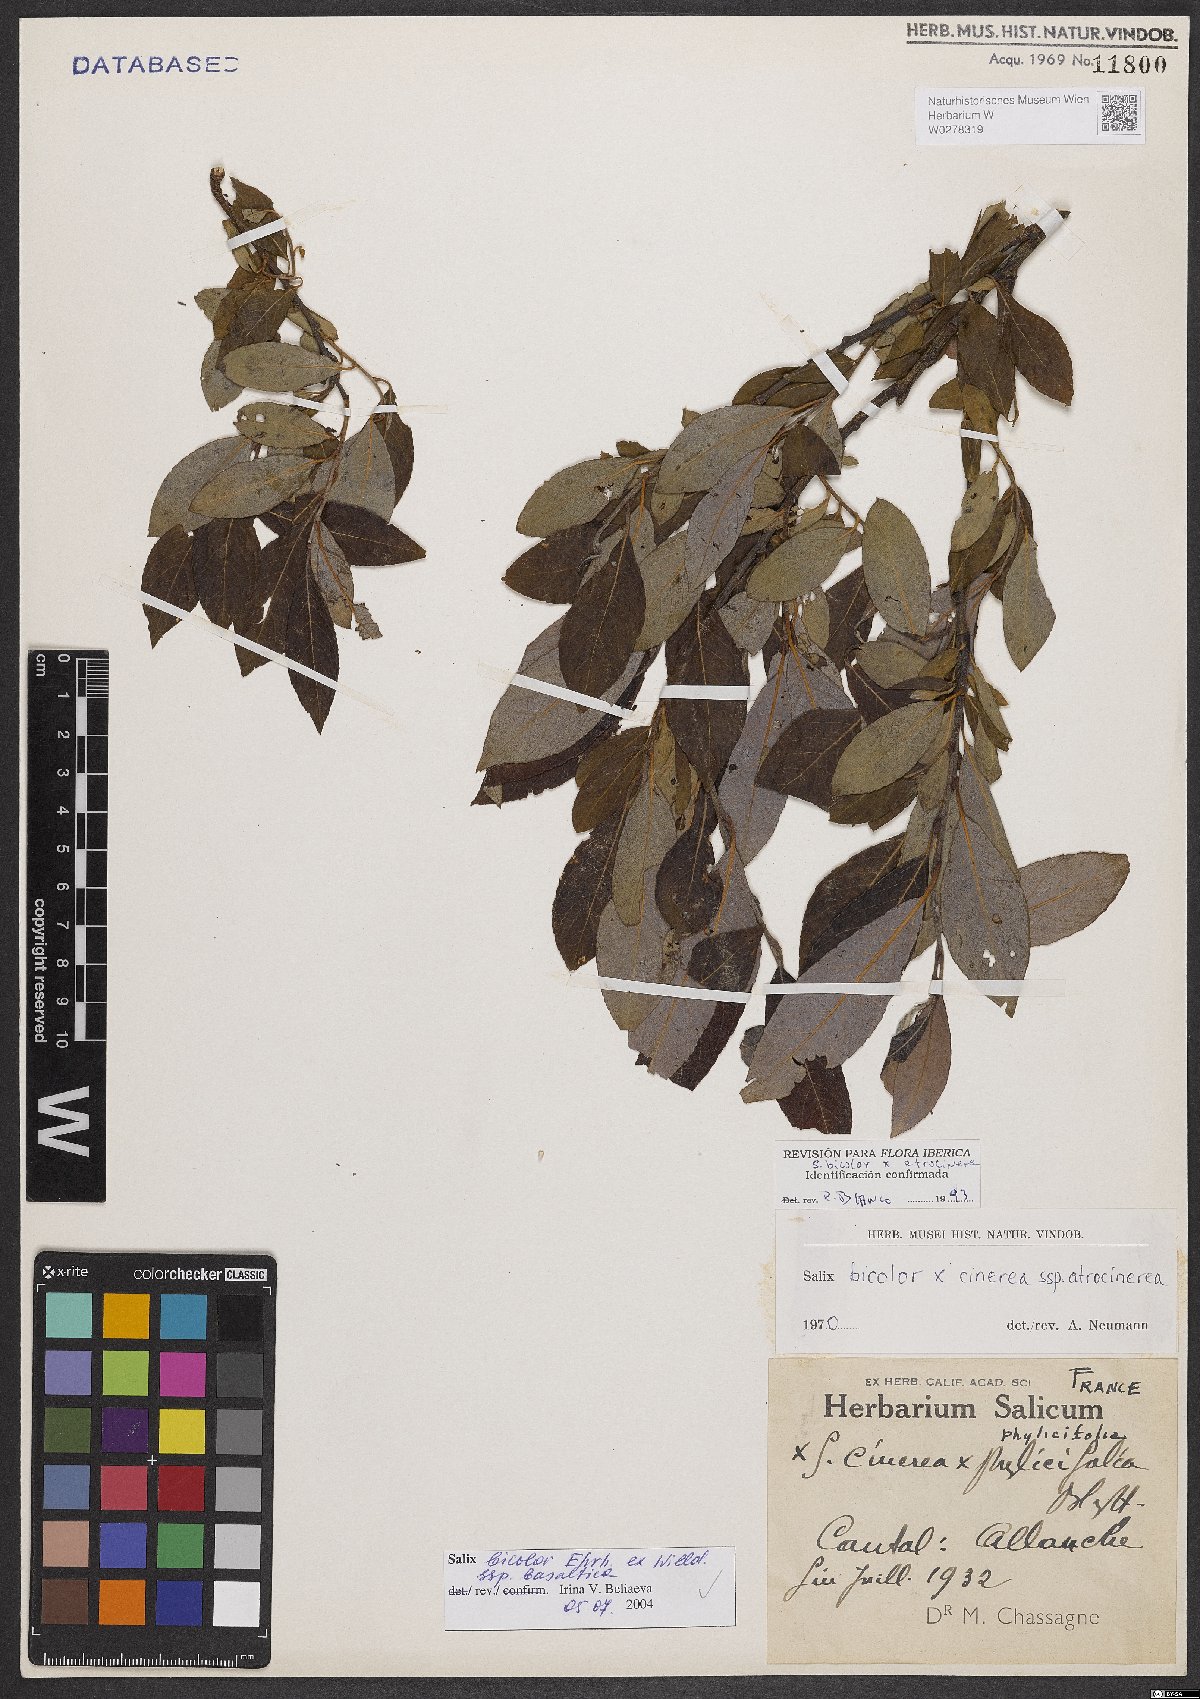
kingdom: Plantae
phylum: Tracheophyta
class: Magnoliopsida
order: Malpighiales
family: Salicaceae
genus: Salix
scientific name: Salix basaltica
